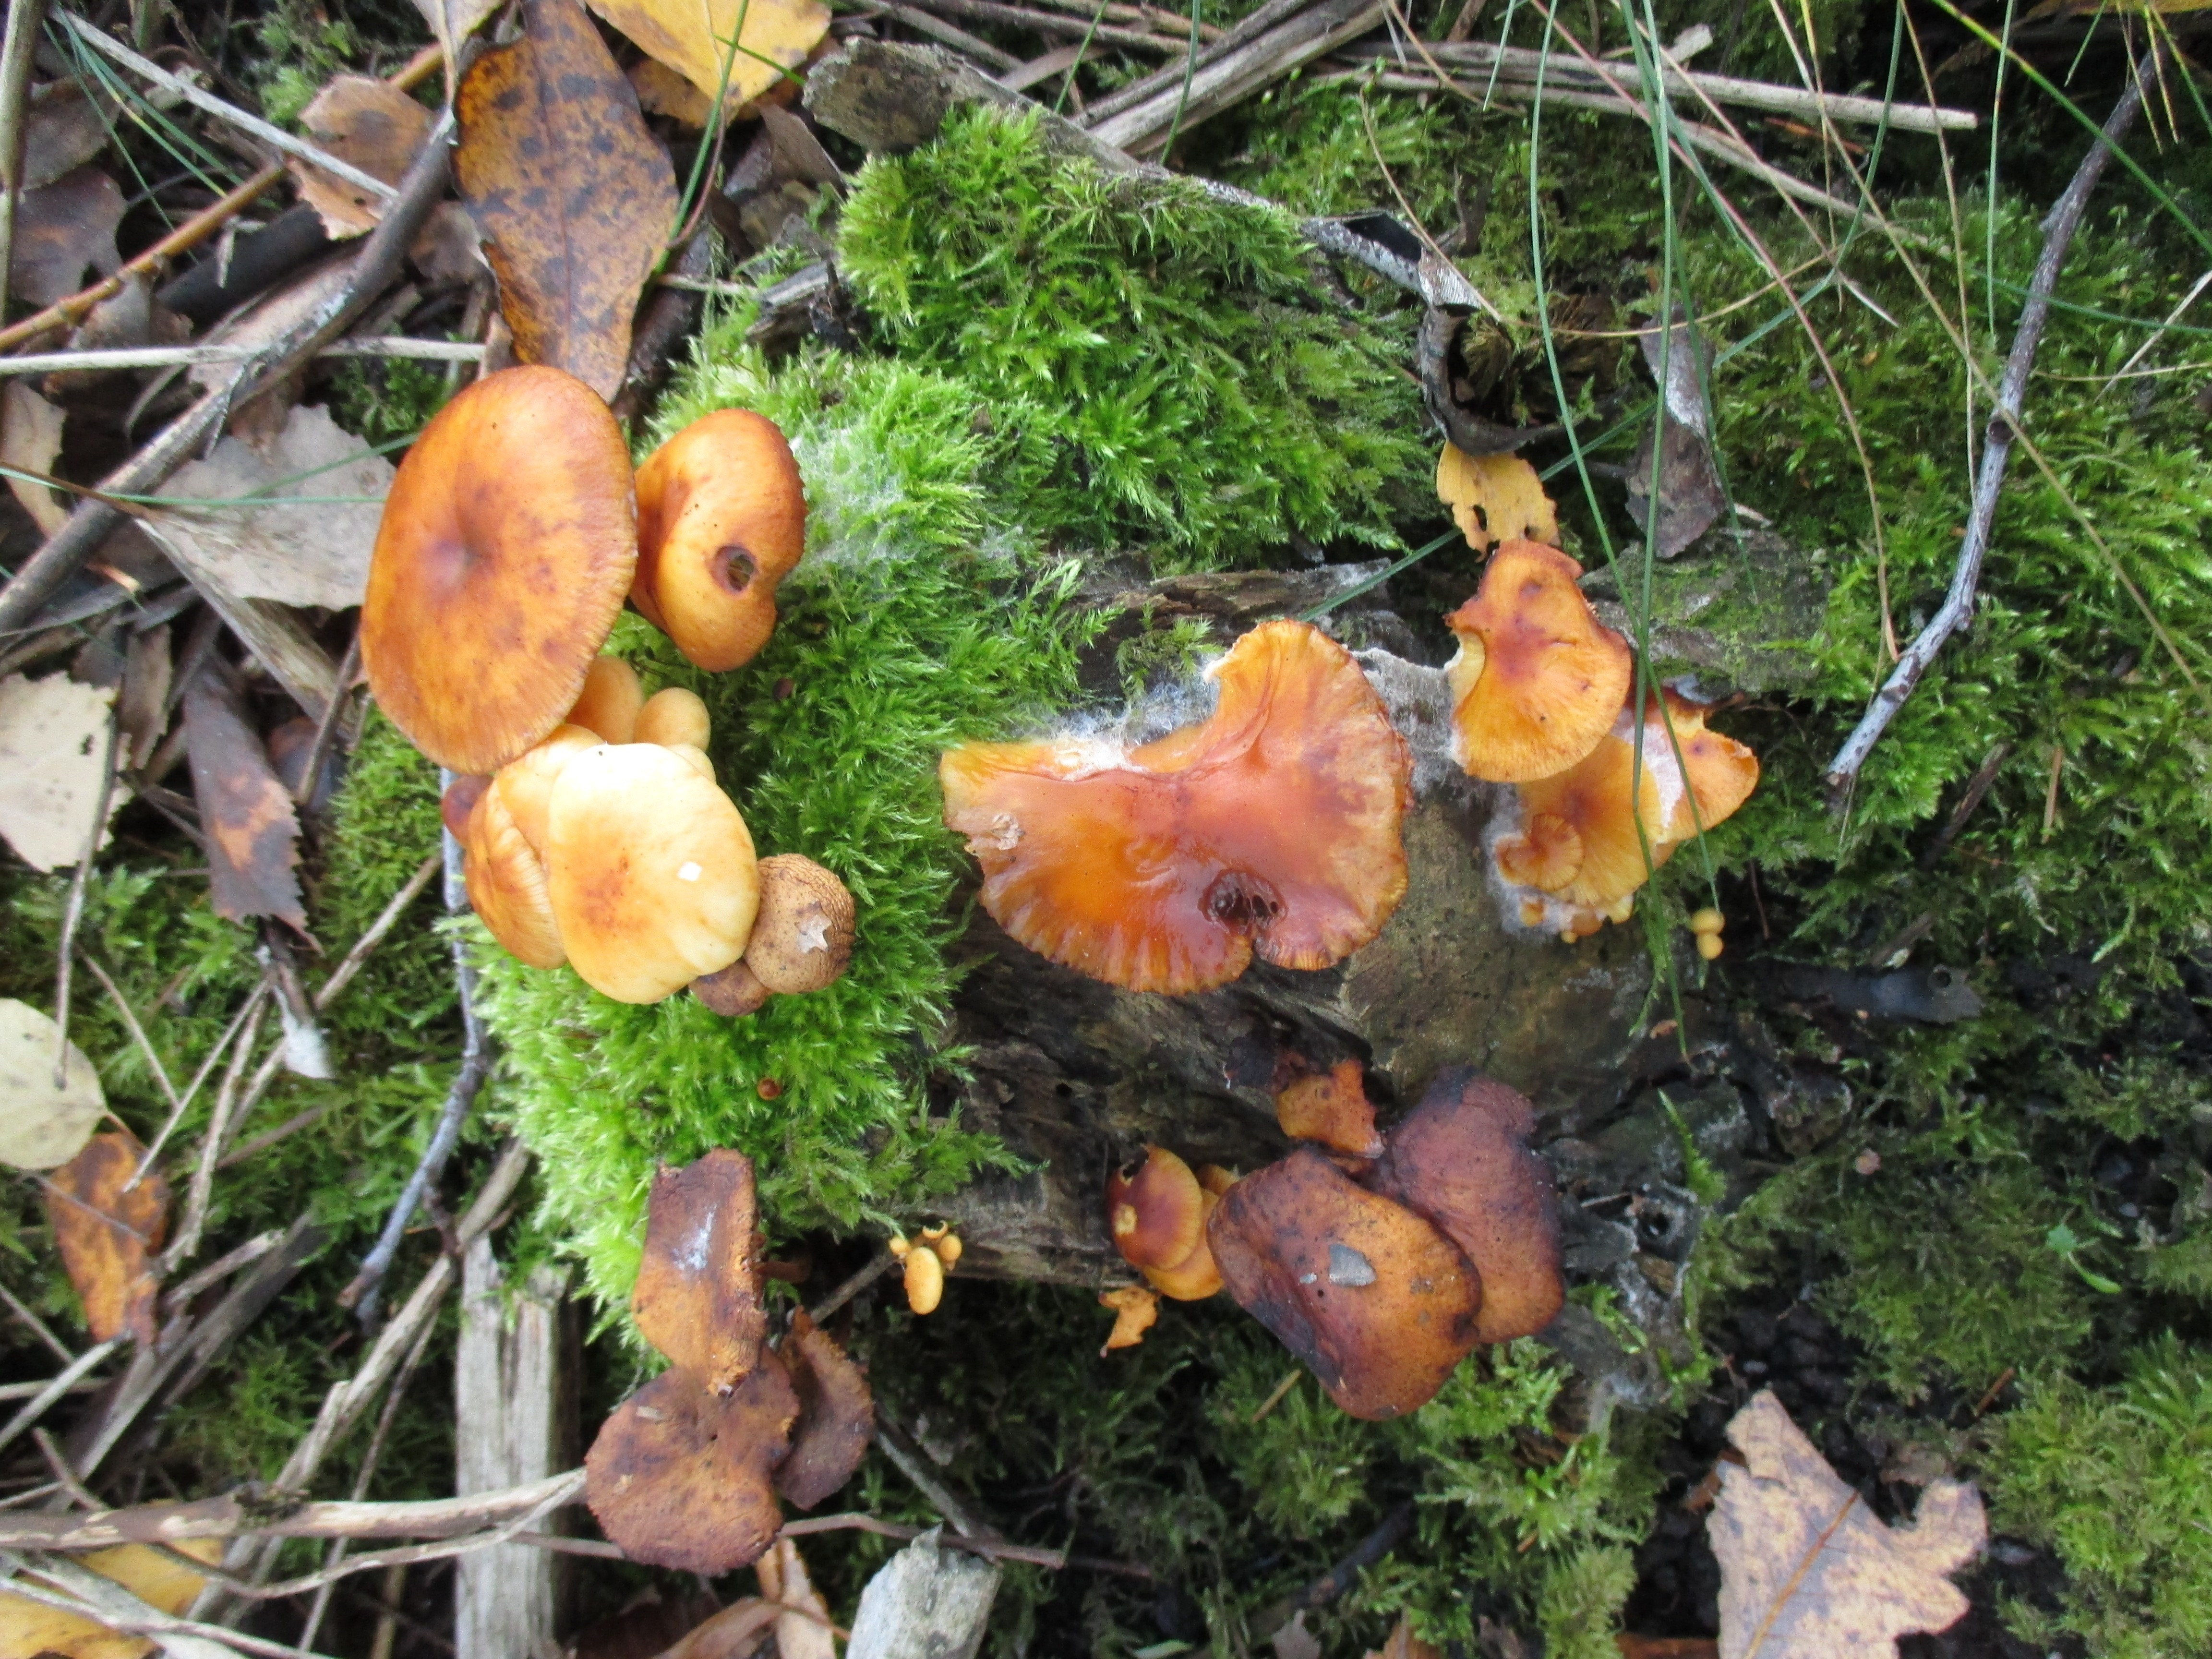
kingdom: Fungi
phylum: Basidiomycota
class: Agaricomycetes
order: Agaricales
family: Physalacriaceae
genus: Flammulina
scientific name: Flammulina velutipes
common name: Velvet shank
